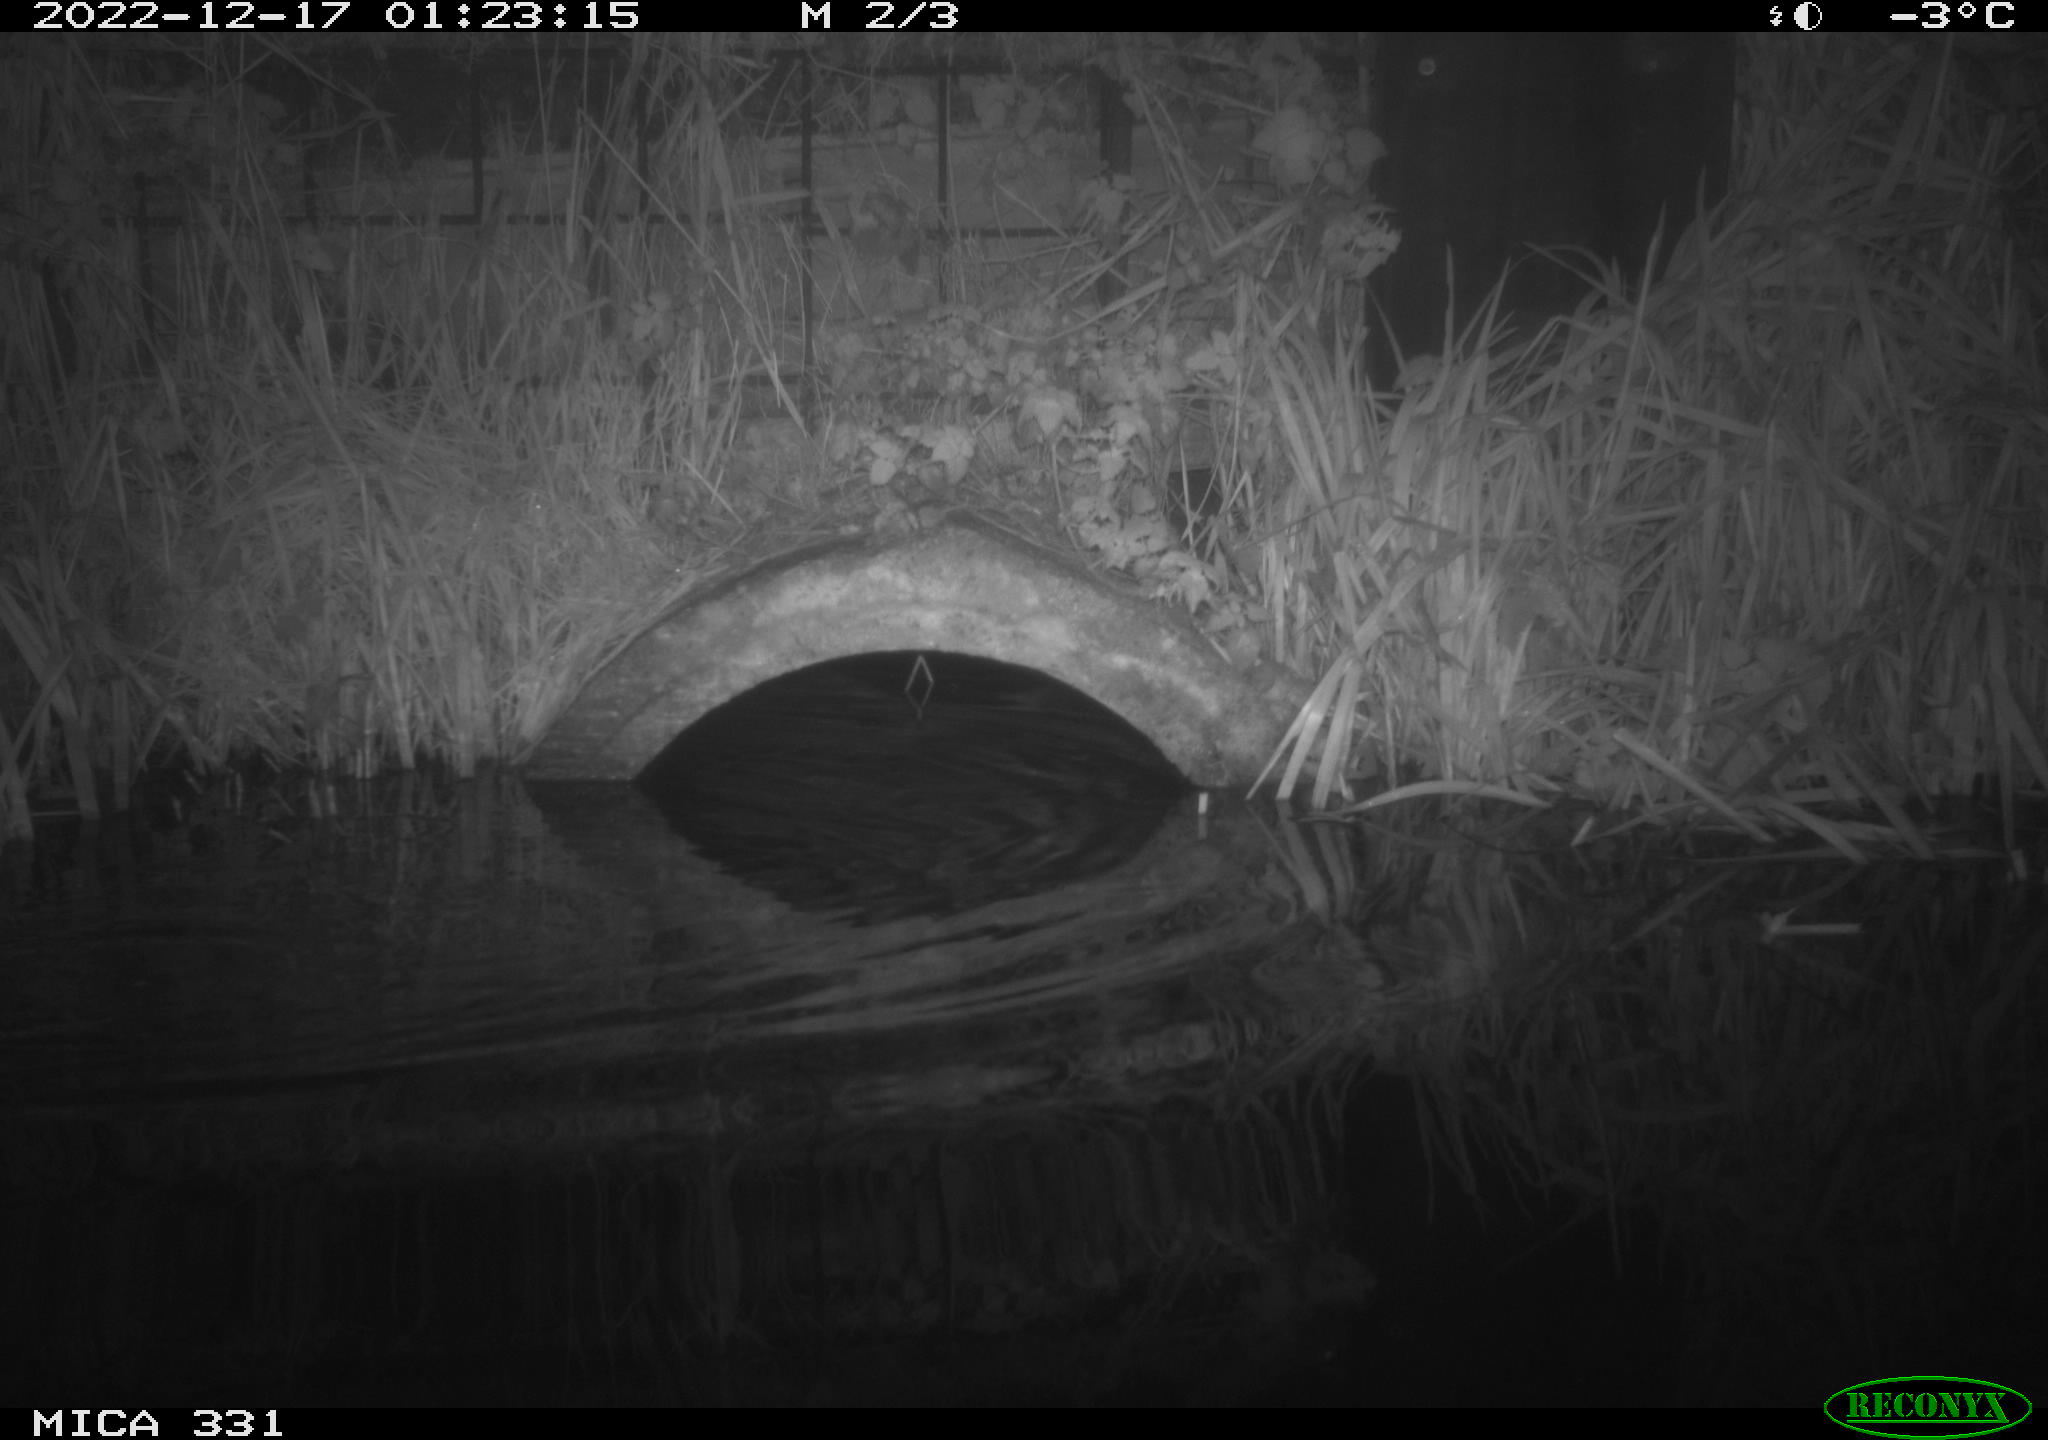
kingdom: Animalia
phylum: Chordata
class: Mammalia
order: Rodentia
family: Muridae
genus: Rattus
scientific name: Rattus norvegicus
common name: Brown rat
